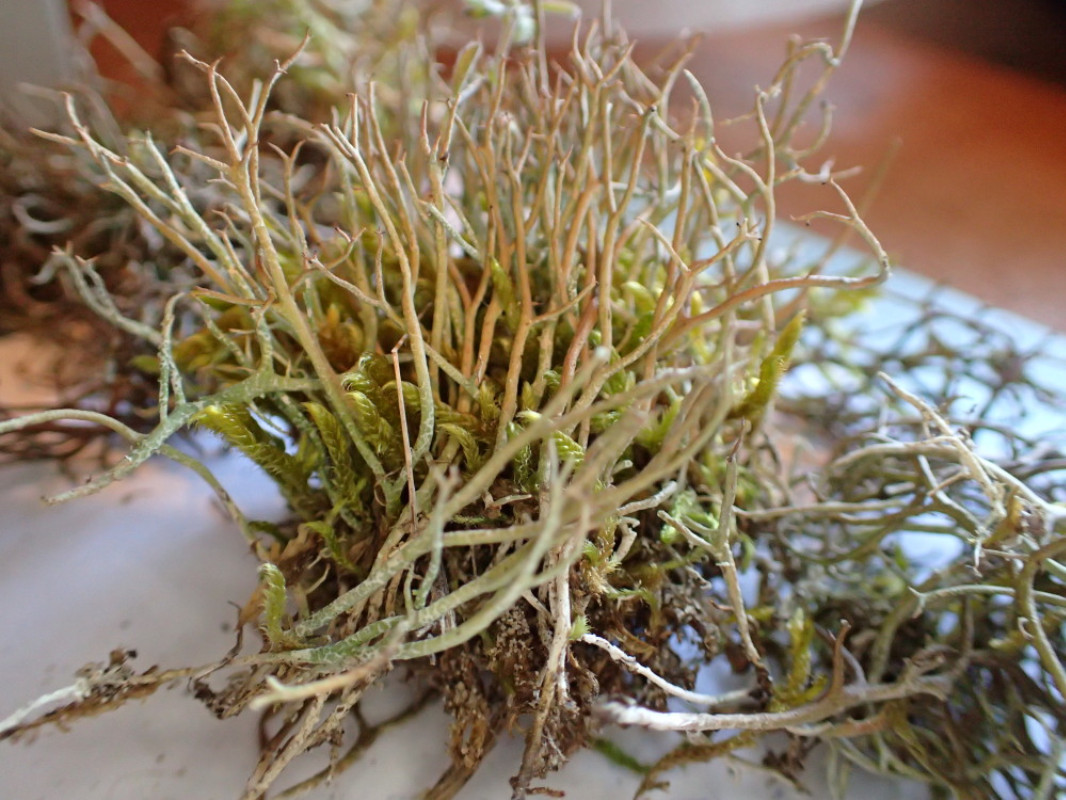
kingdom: Fungi
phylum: Ascomycota
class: Lecanoromycetes
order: Lecanorales
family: Cladoniaceae
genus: Cladonia
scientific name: Cladonia furcata
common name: kløftet bægerlav
